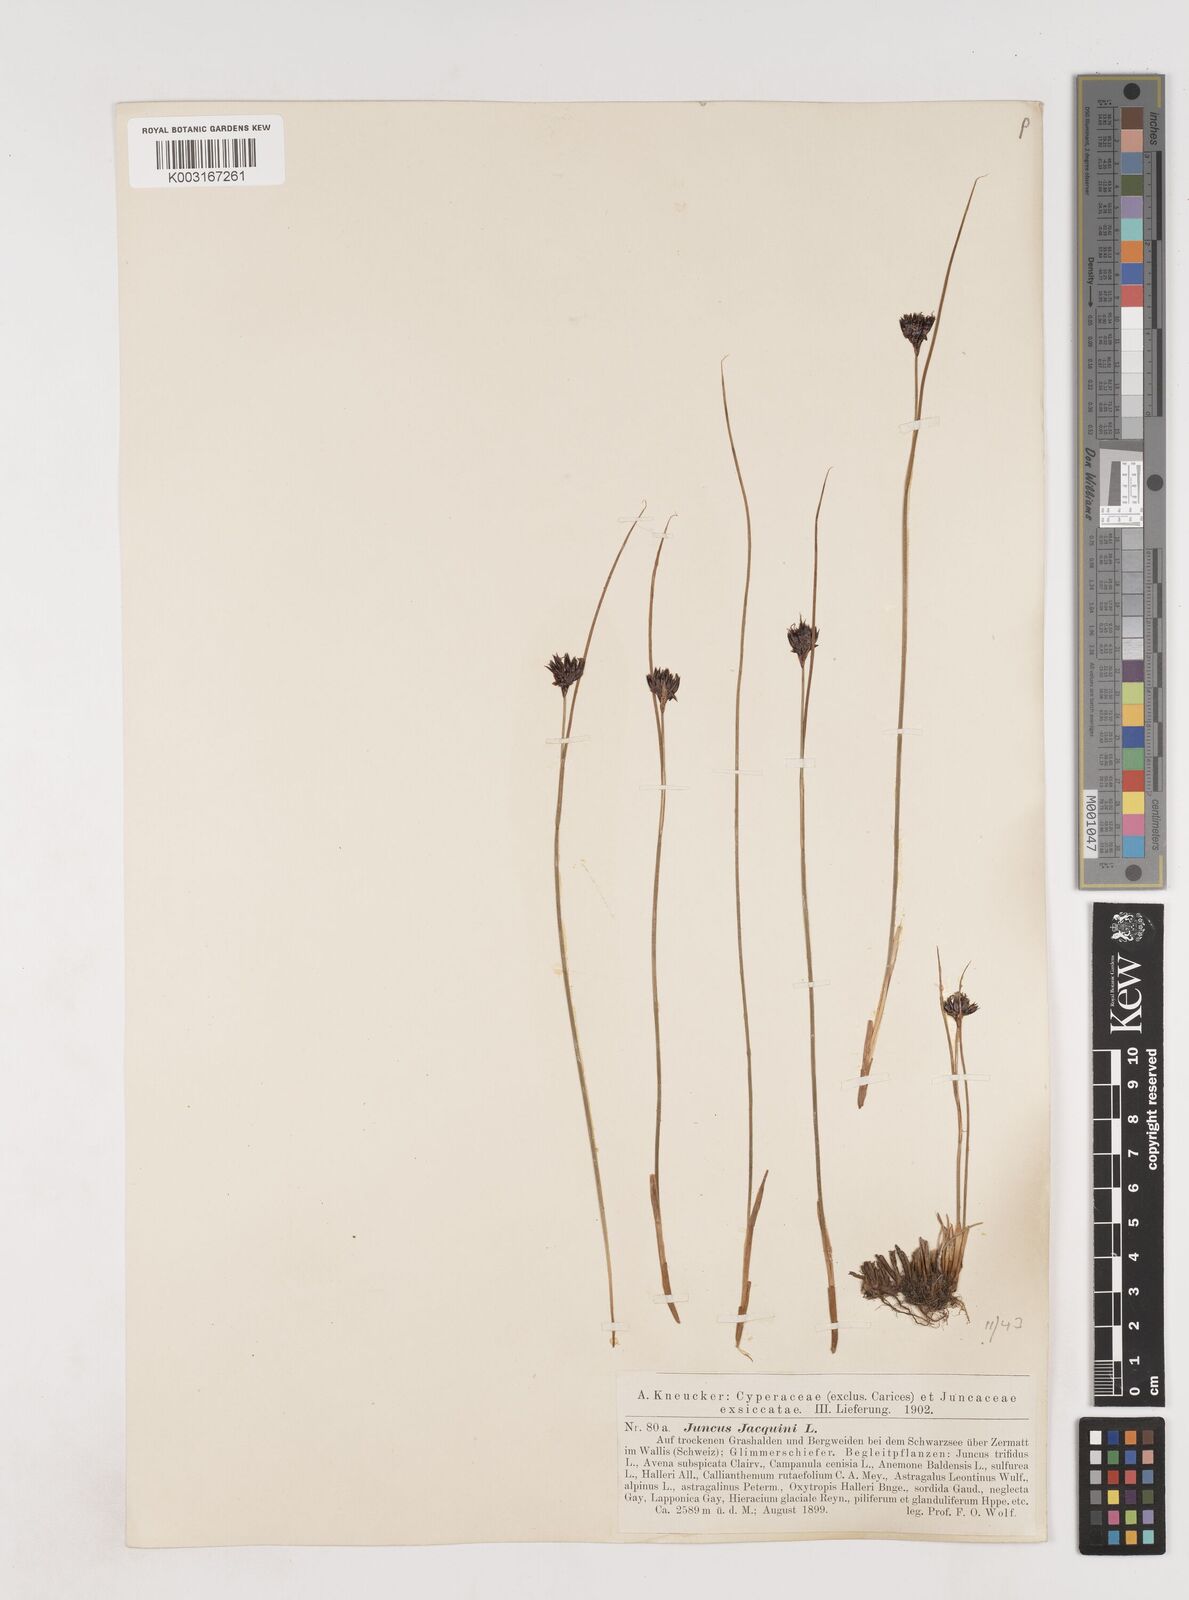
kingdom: Plantae
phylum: Tracheophyta
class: Liliopsida
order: Poales
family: Juncaceae
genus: Juncus
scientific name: Juncus jacquinii
